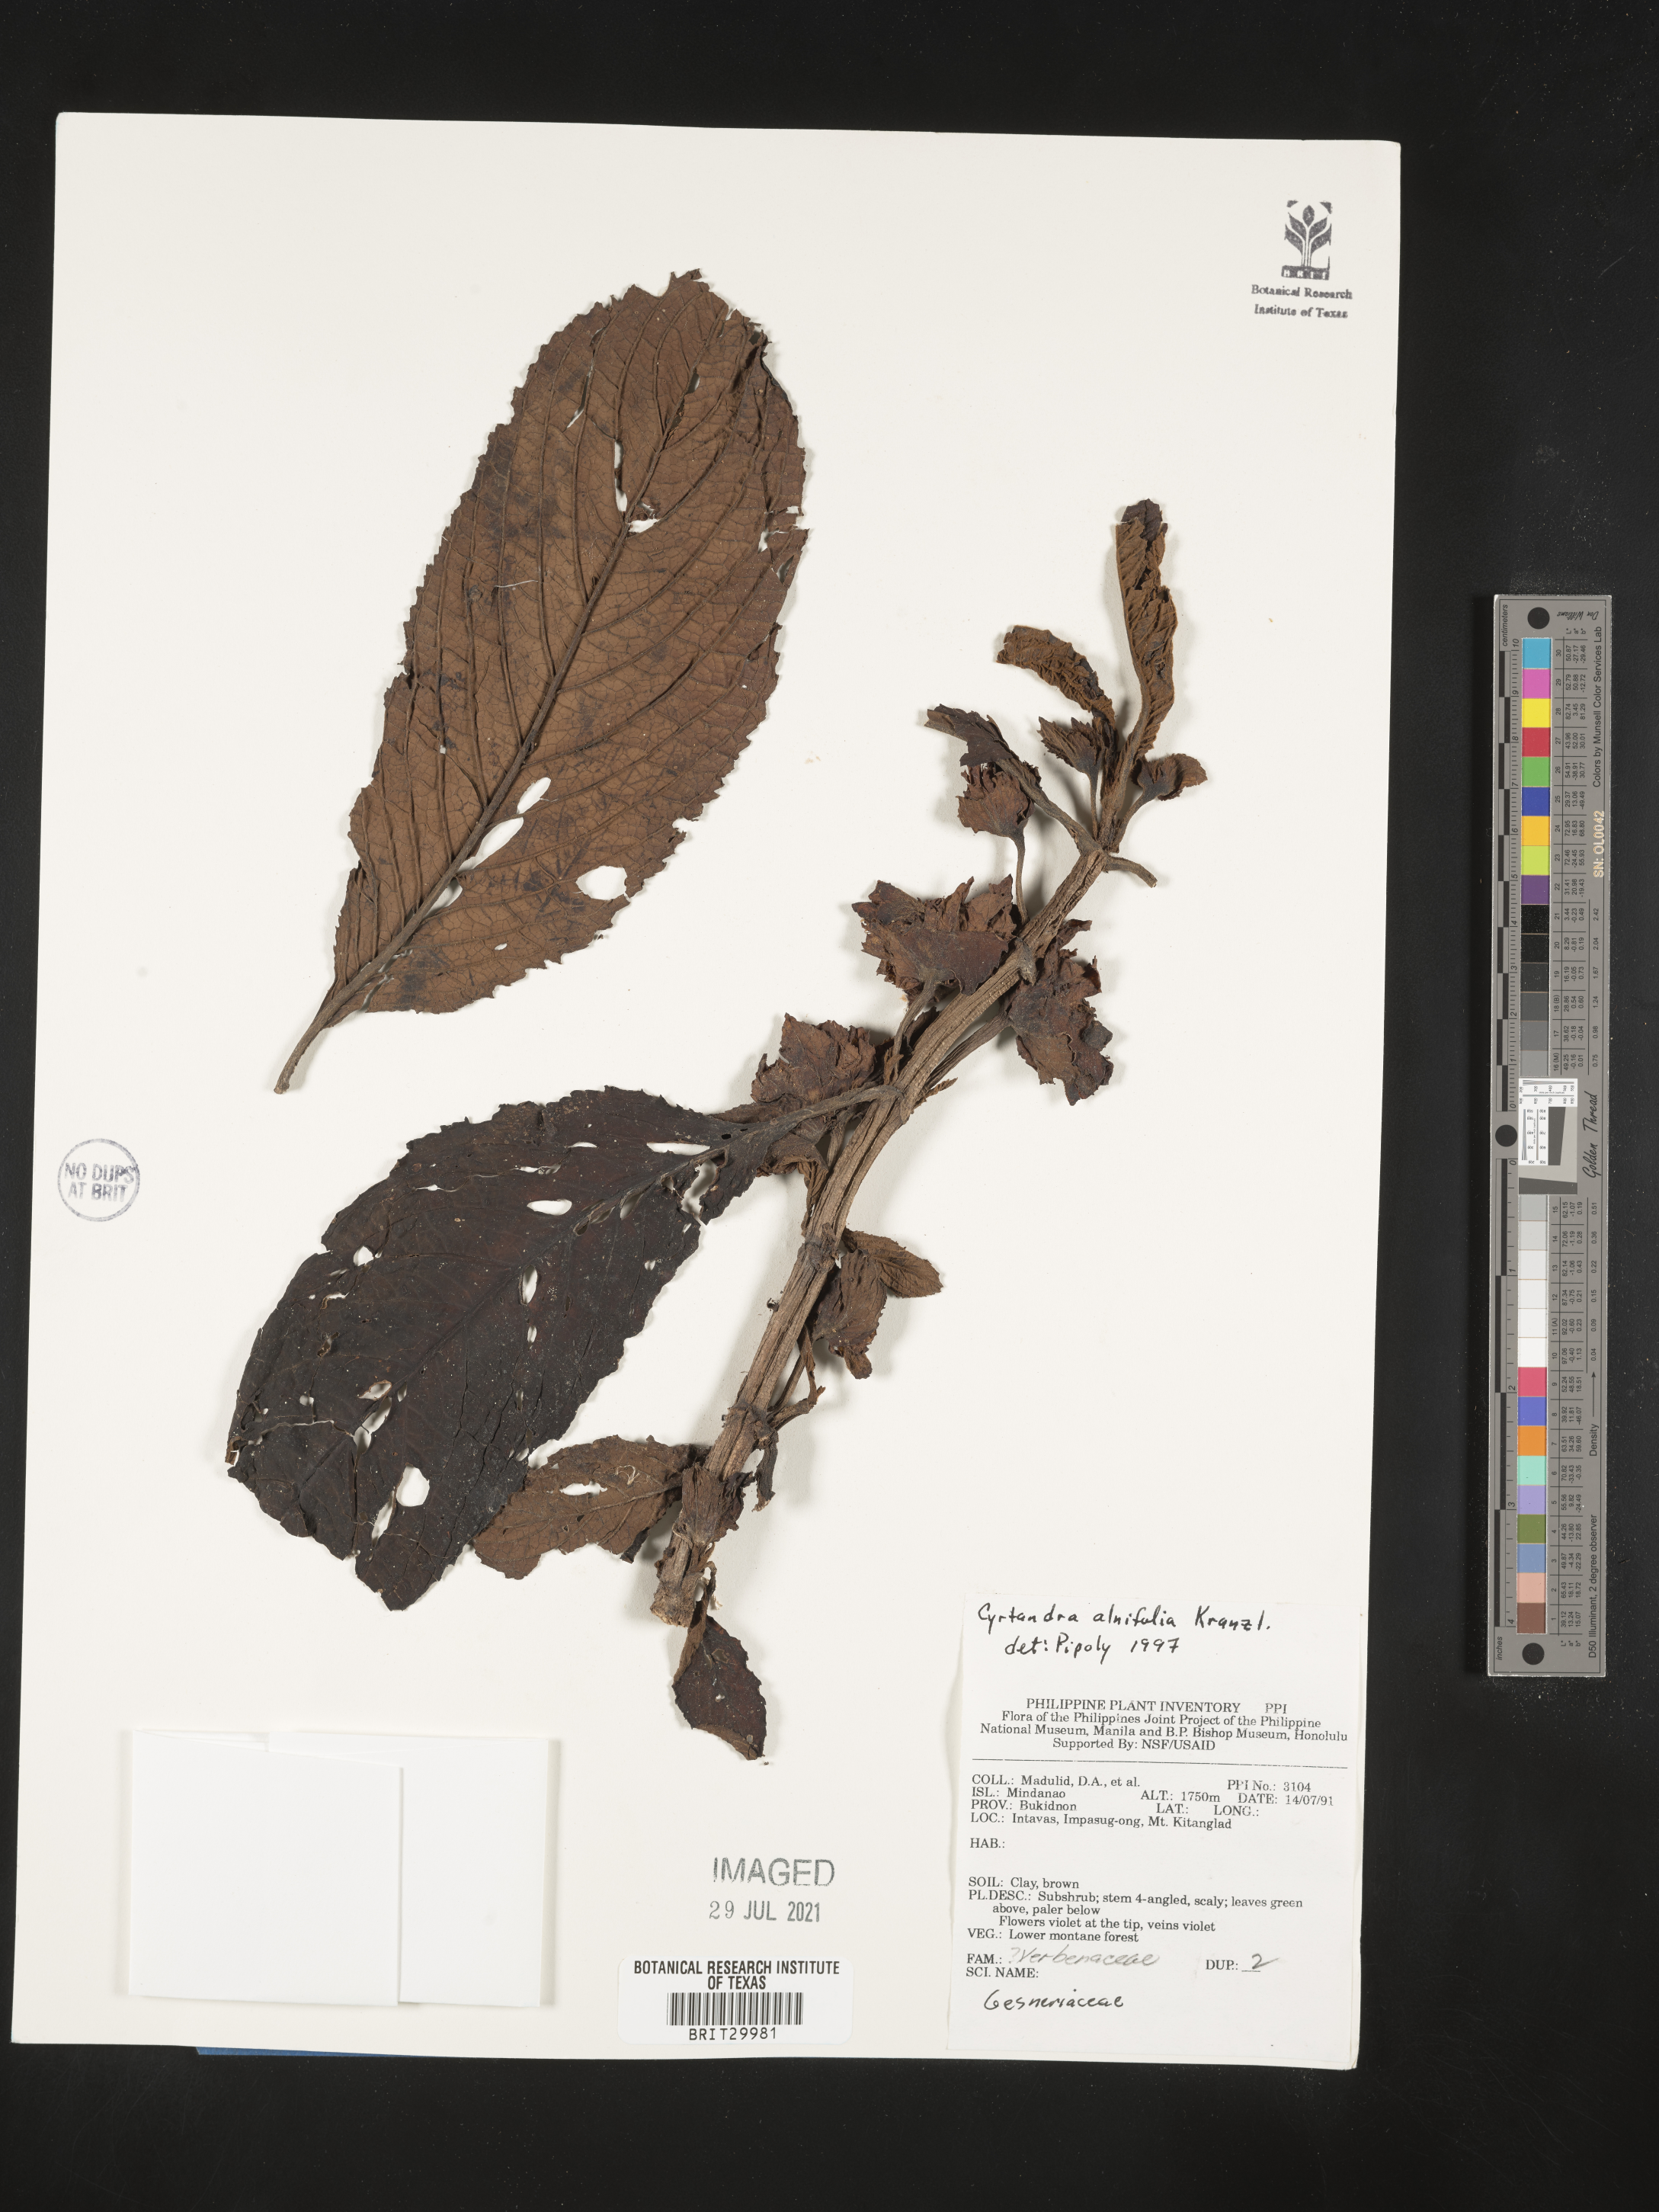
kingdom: Plantae
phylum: Tracheophyta
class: Magnoliopsida
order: Lamiales
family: Gesneriaceae
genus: Cyrtandra
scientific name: Cyrtandra pachyneura
